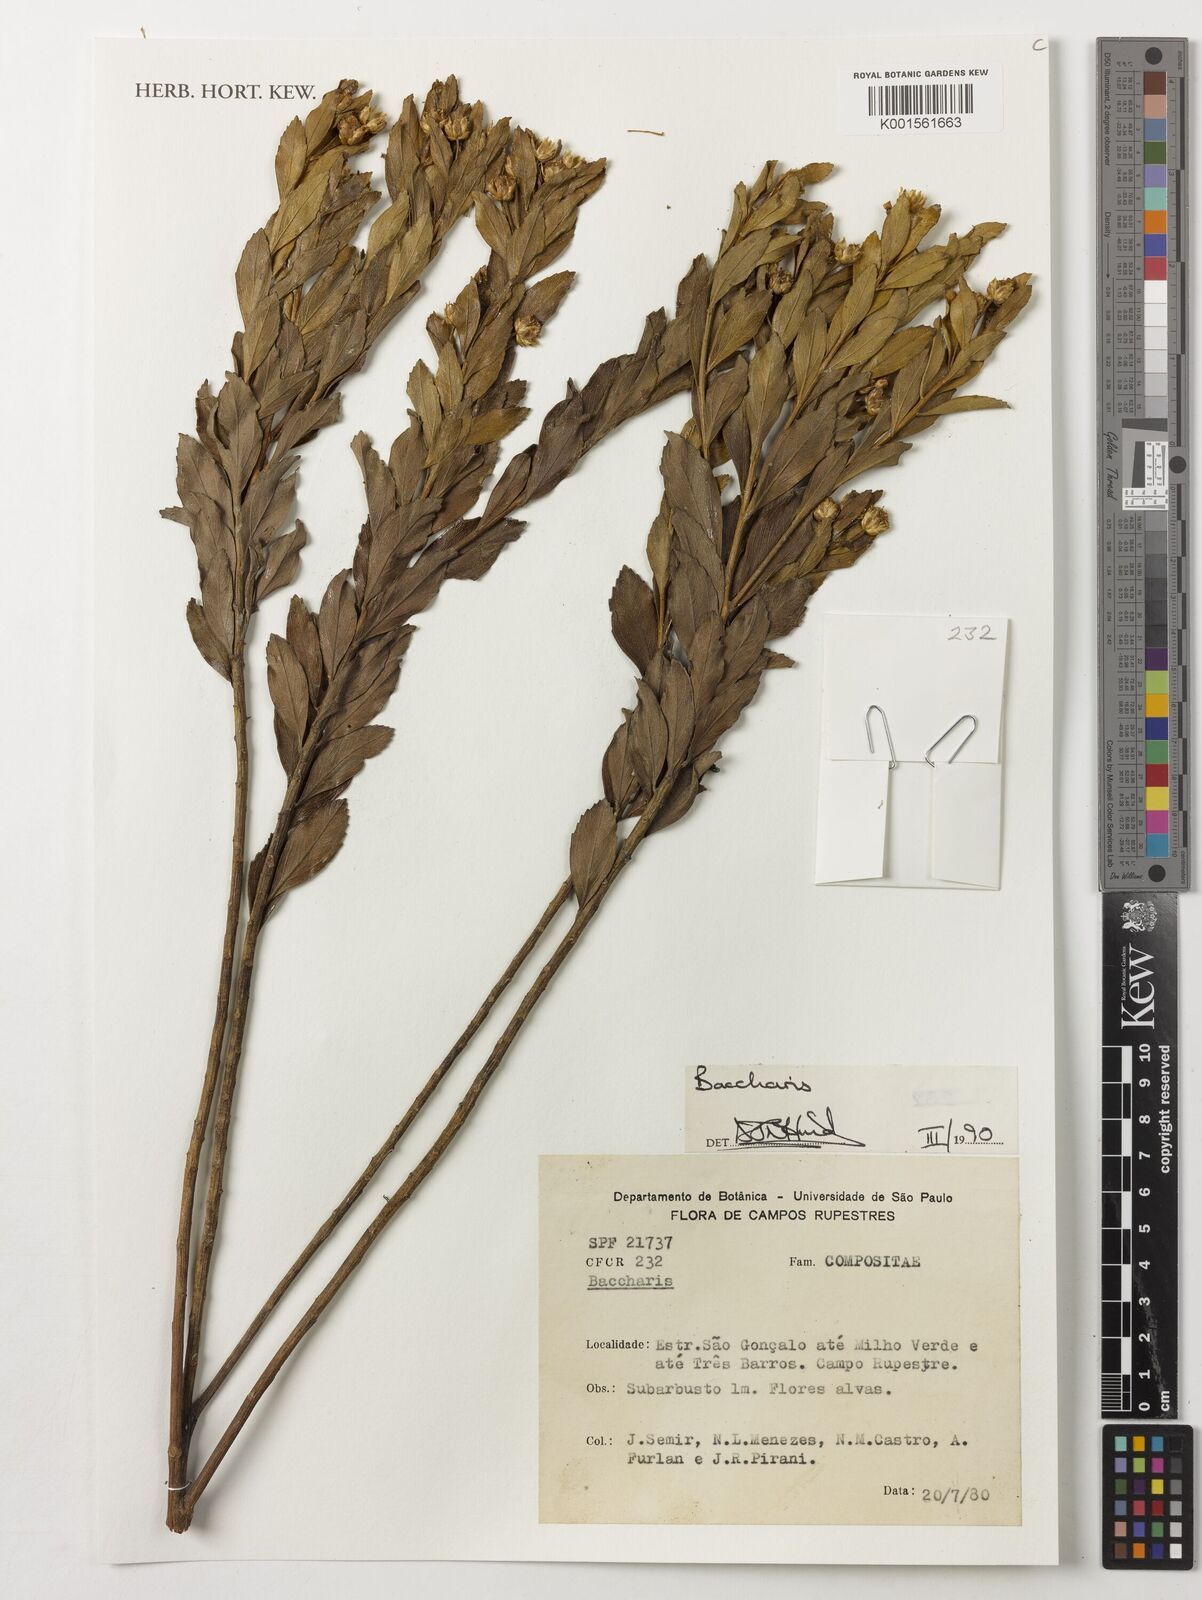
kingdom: Plantae
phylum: Tracheophyta
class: Magnoliopsida
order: Asterales
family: Asteraceae
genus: Baccharis
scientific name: Baccharis
